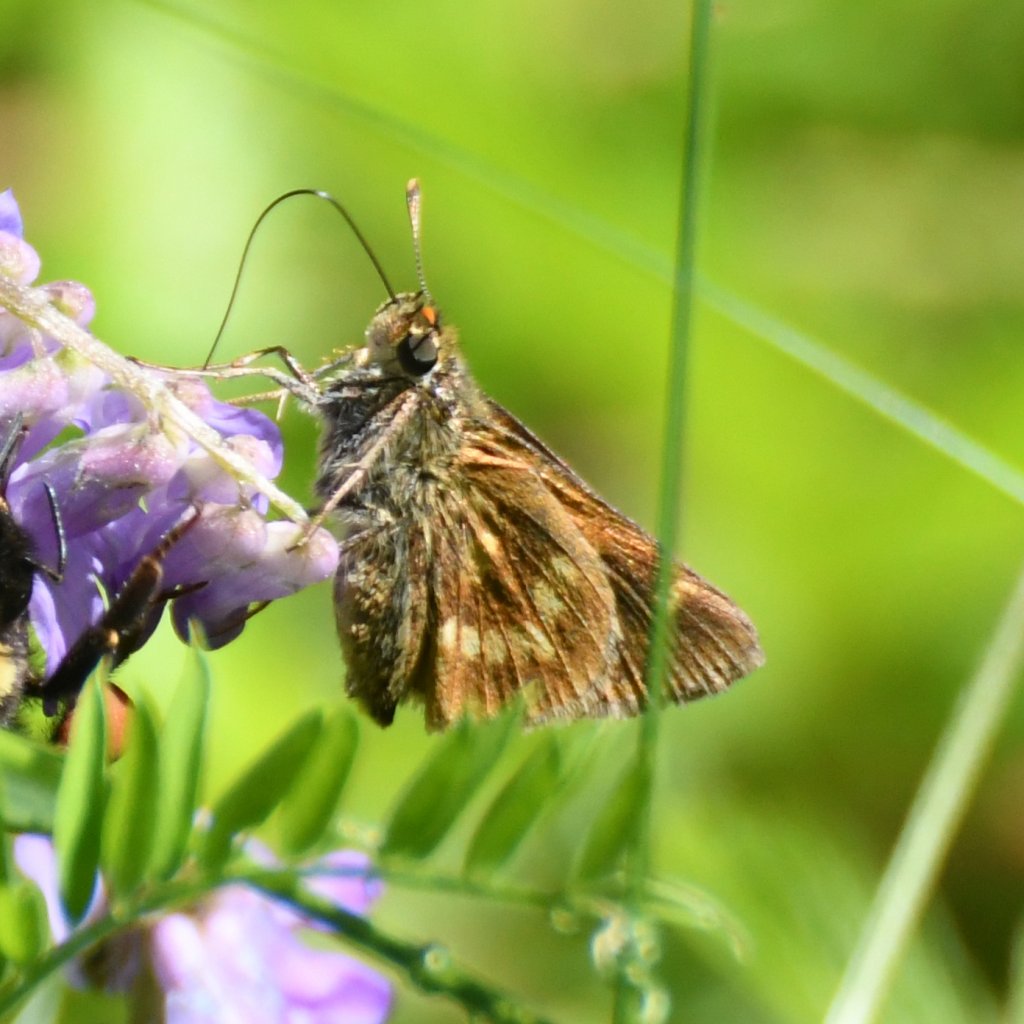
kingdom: Animalia
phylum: Arthropoda
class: Insecta
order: Lepidoptera
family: Hesperiidae
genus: Polites
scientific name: Polites
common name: Long Dash Skipper
